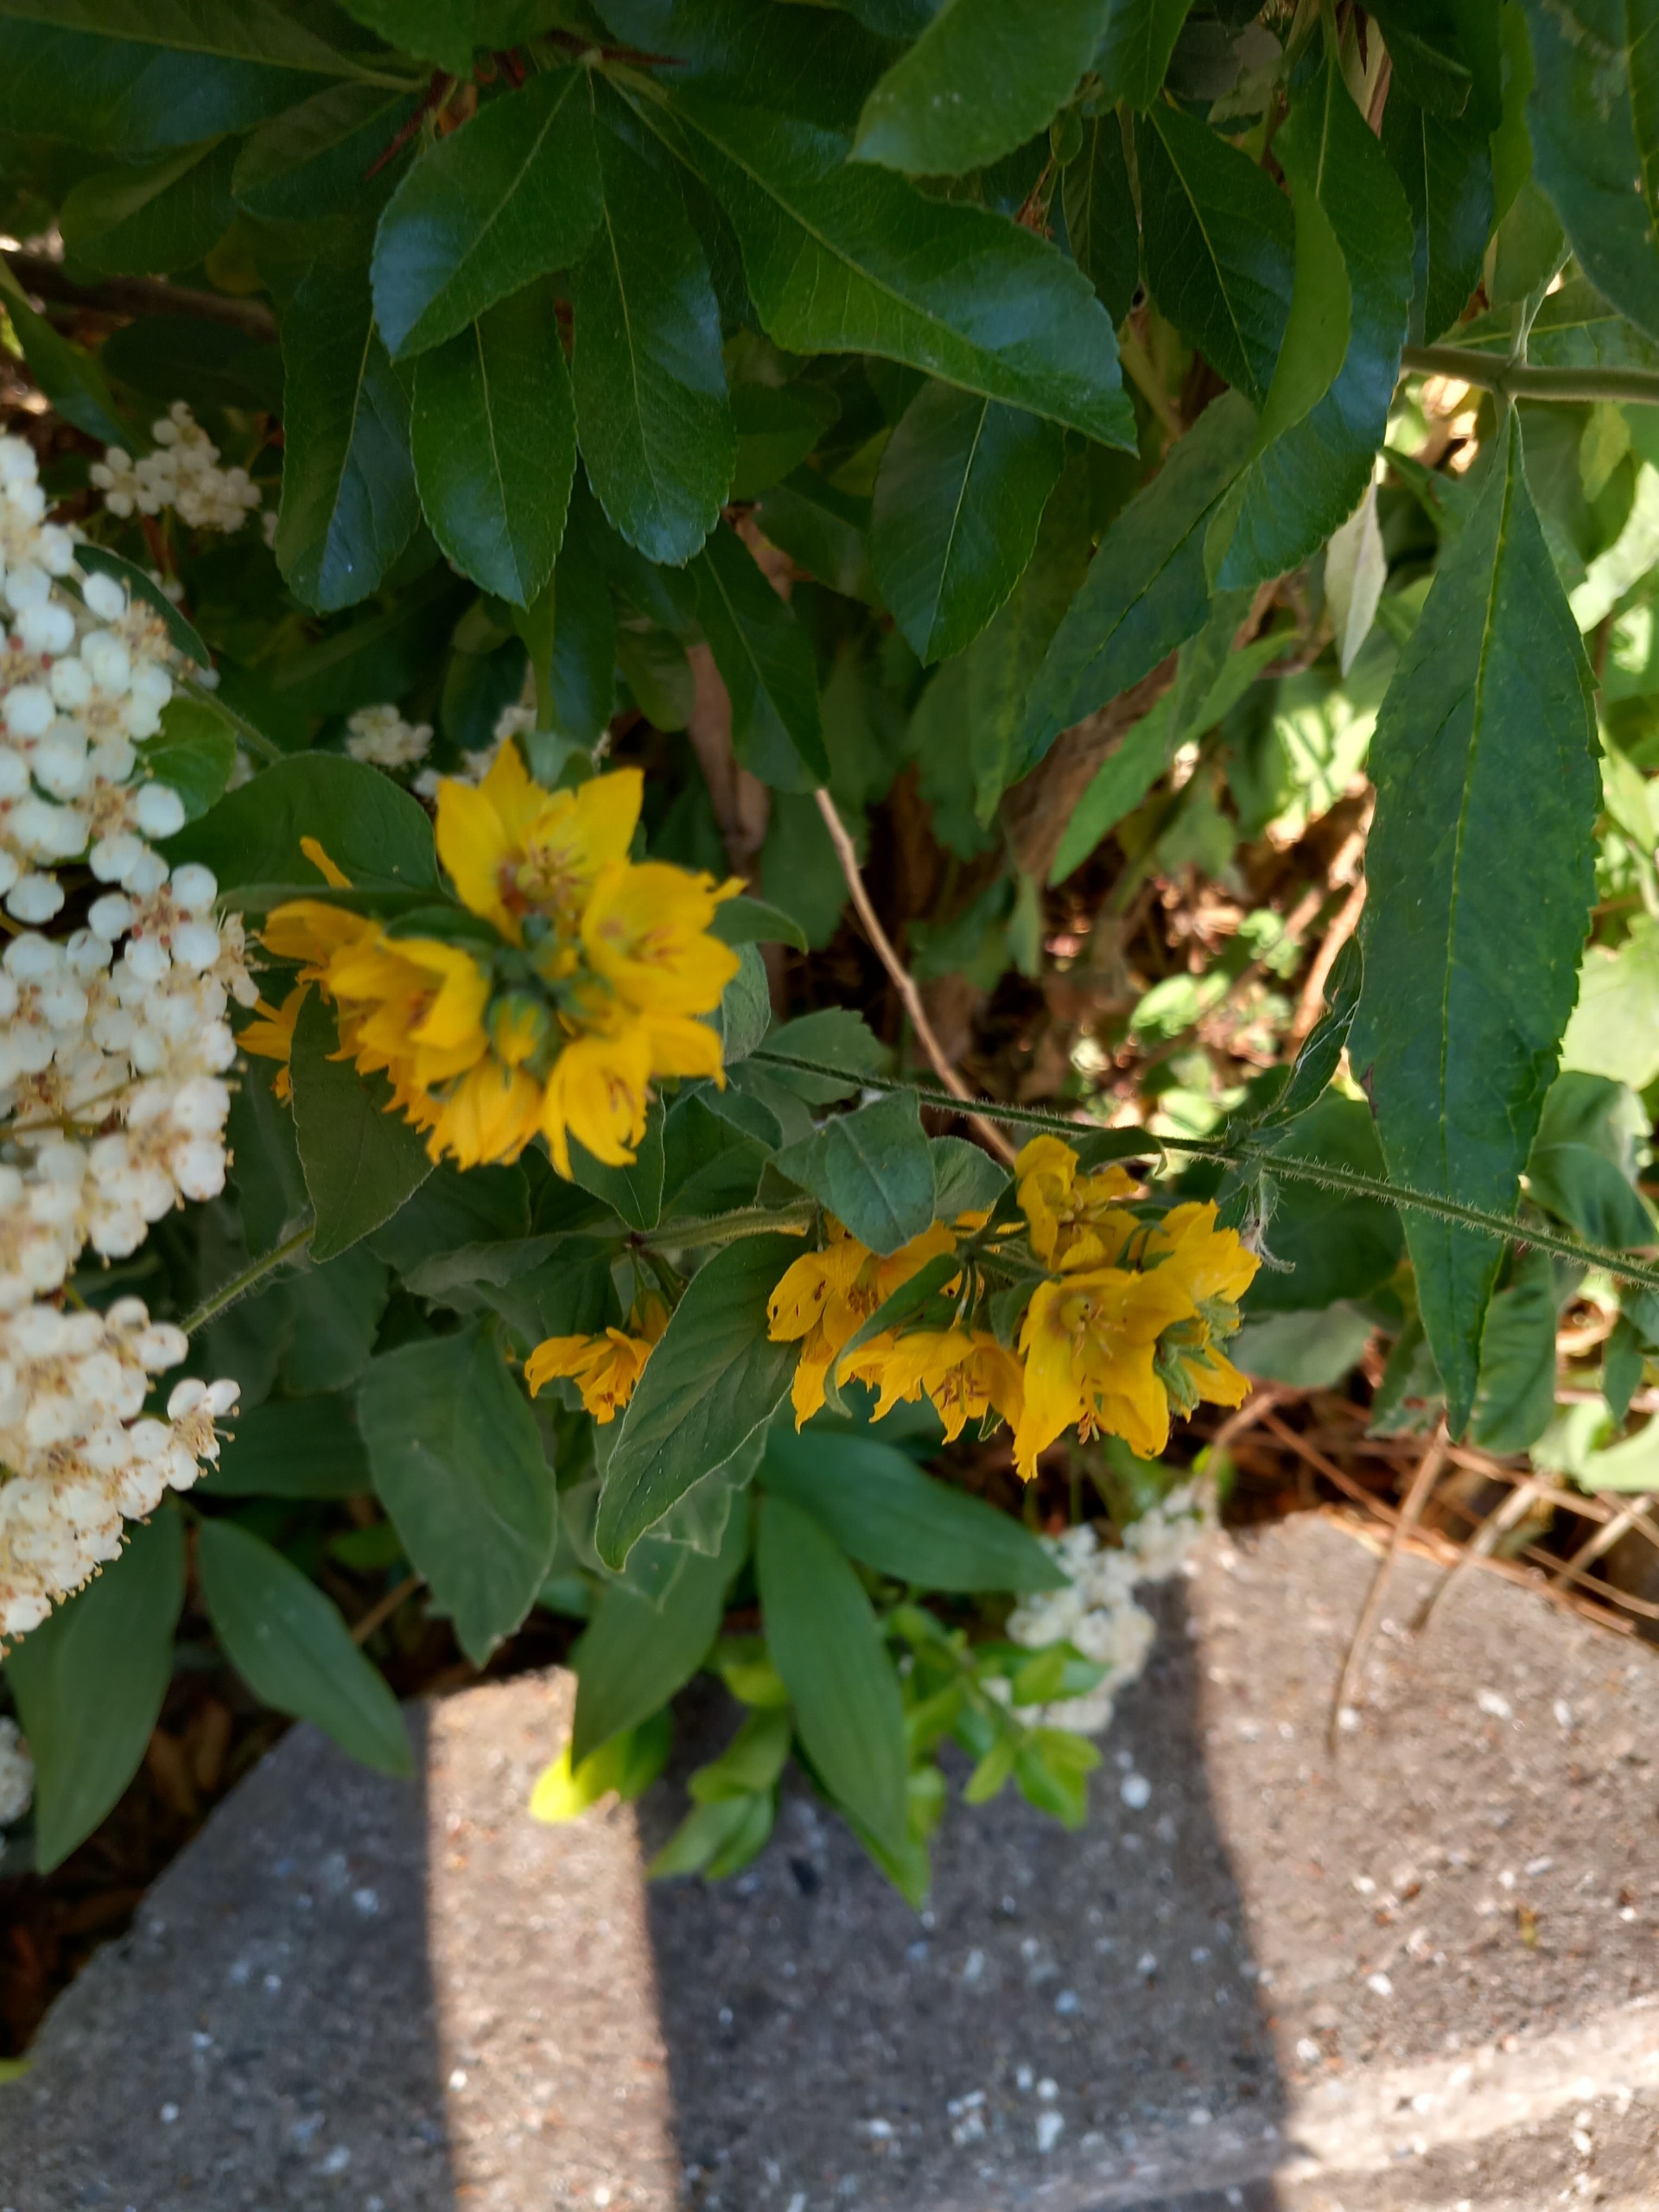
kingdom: Plantae
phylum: Tracheophyta
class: Magnoliopsida
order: Ericales
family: Primulaceae
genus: Lysimachia
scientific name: Lysimachia punctata
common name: Prikbladet fredløs
